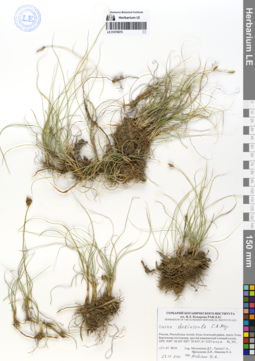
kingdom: Plantae
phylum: Tracheophyta
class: Liliopsida
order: Poales
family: Cyperaceae
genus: Carex
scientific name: Carex duriuscula
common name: Involute-leaved sedge
